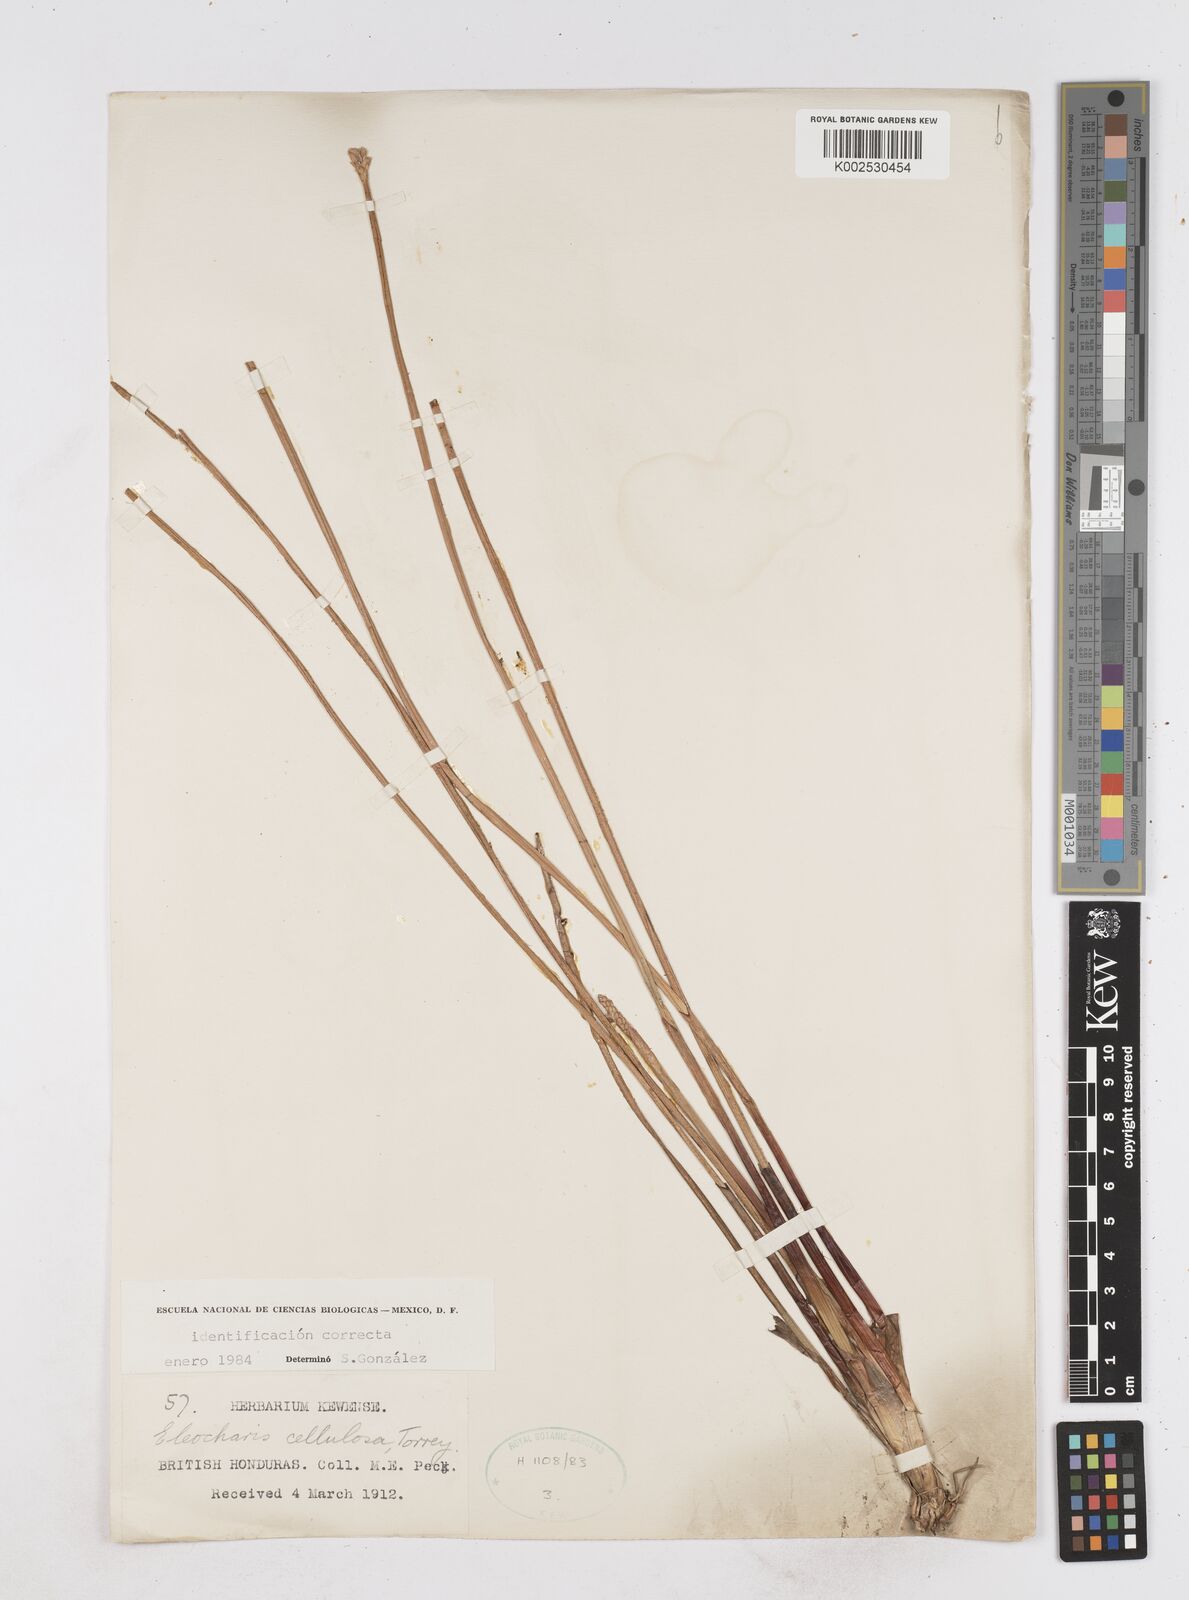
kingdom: Plantae
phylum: Tracheophyta
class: Liliopsida
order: Poales
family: Cyperaceae
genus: Eleocharis
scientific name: Eleocharis cellulosa
